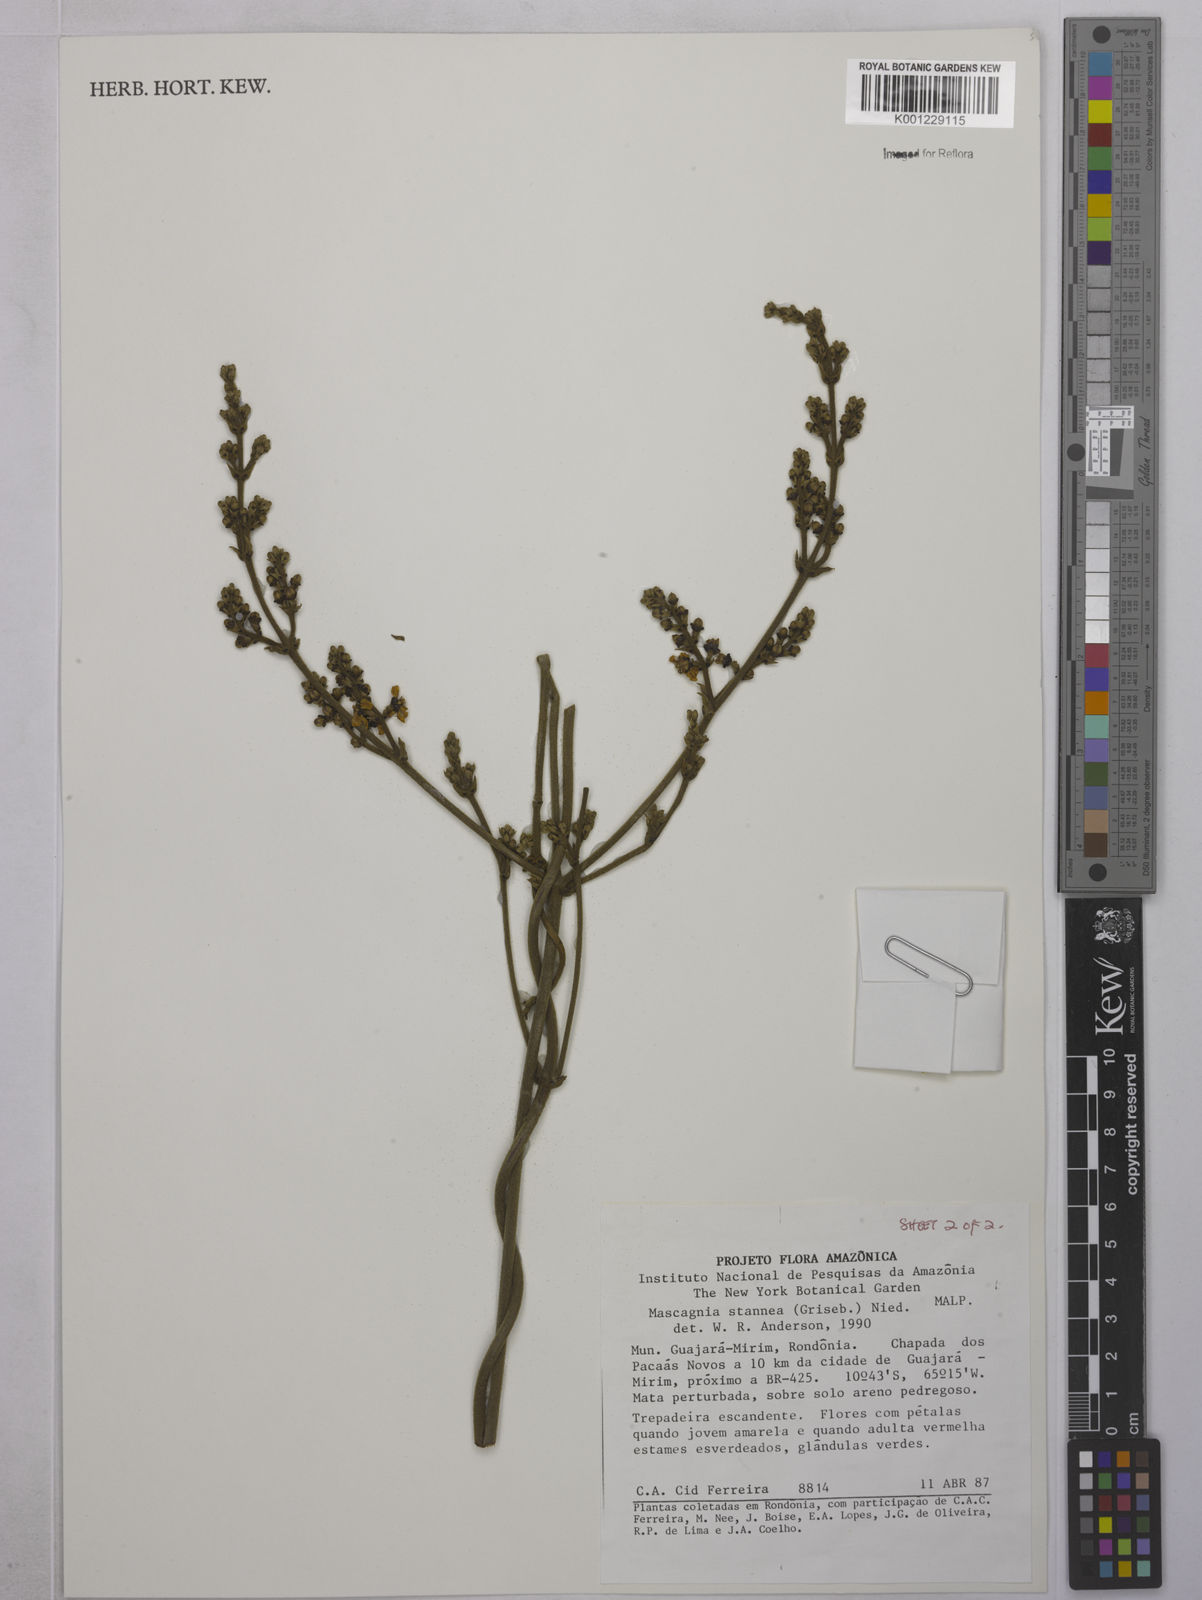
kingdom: Plantae
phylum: Tracheophyta
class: Magnoliopsida
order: Malpighiales
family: Malpighiaceae
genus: Niedenzuella
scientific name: Niedenzuella stannea
